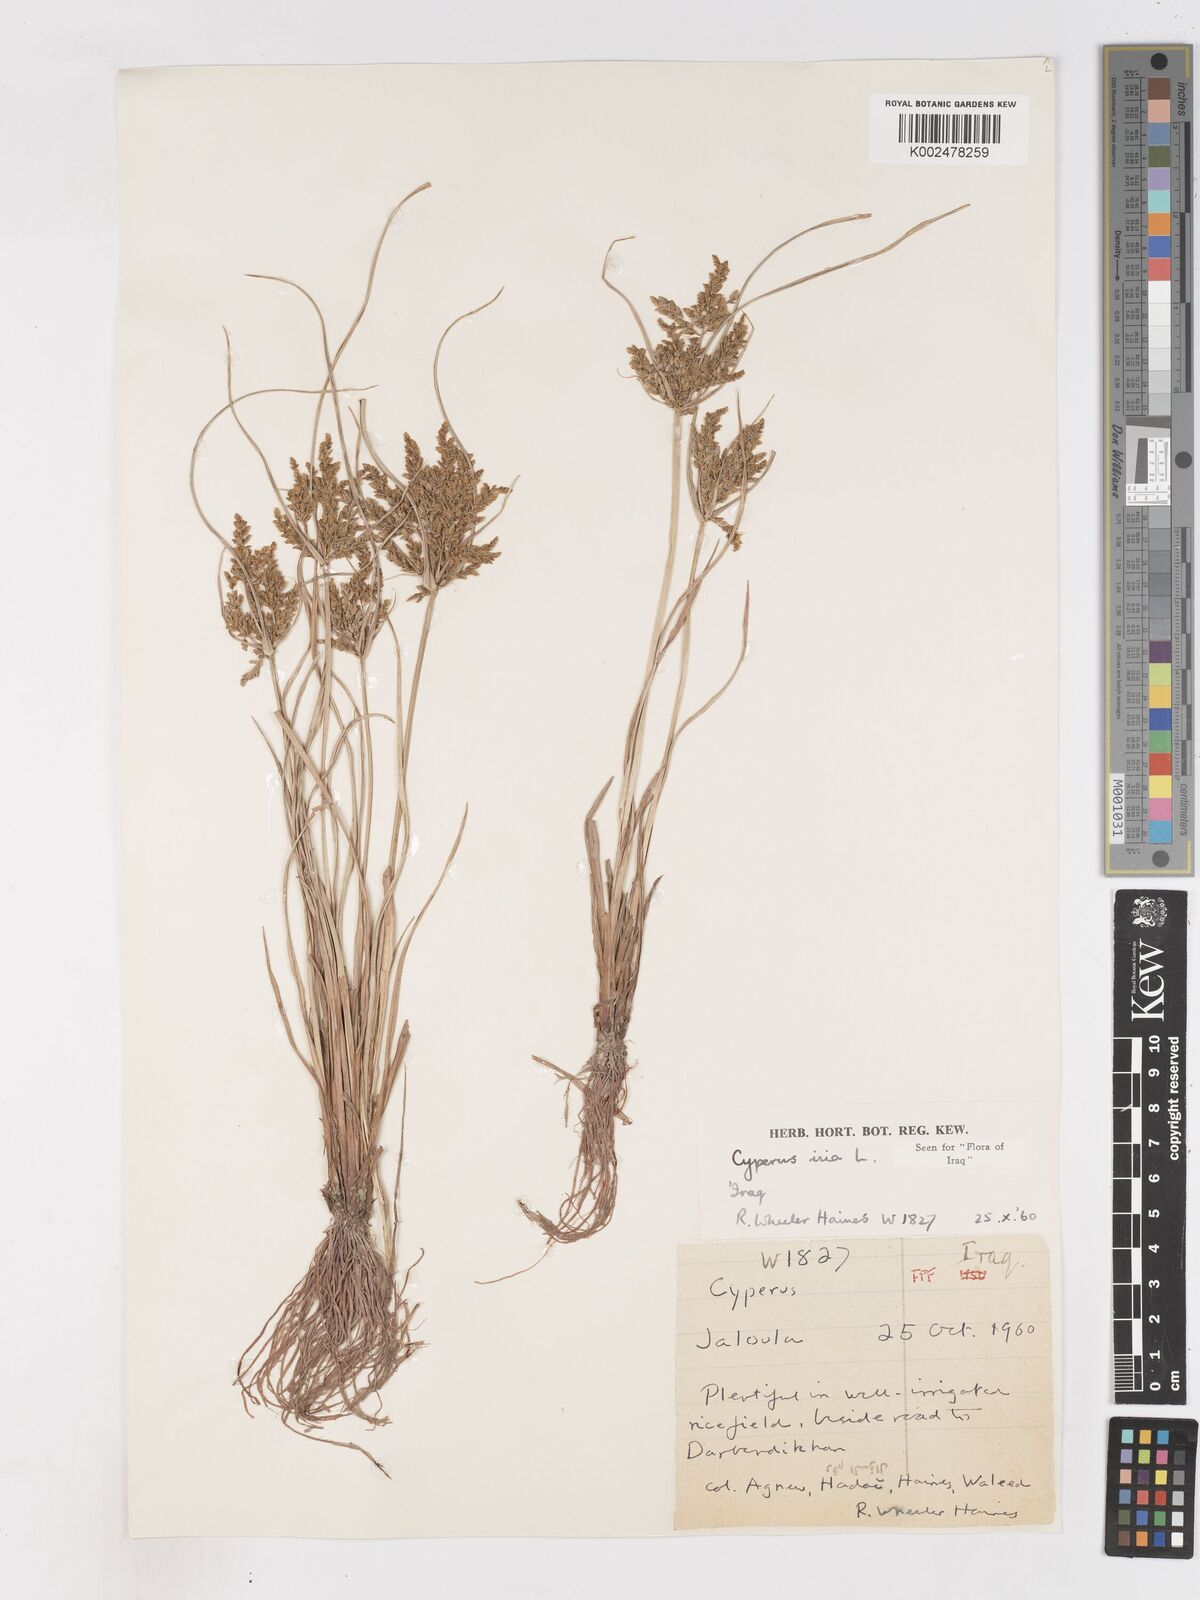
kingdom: Plantae
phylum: Tracheophyta
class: Liliopsida
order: Poales
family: Cyperaceae
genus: Cyperus
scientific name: Cyperus iria
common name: Ricefield flatsedge
